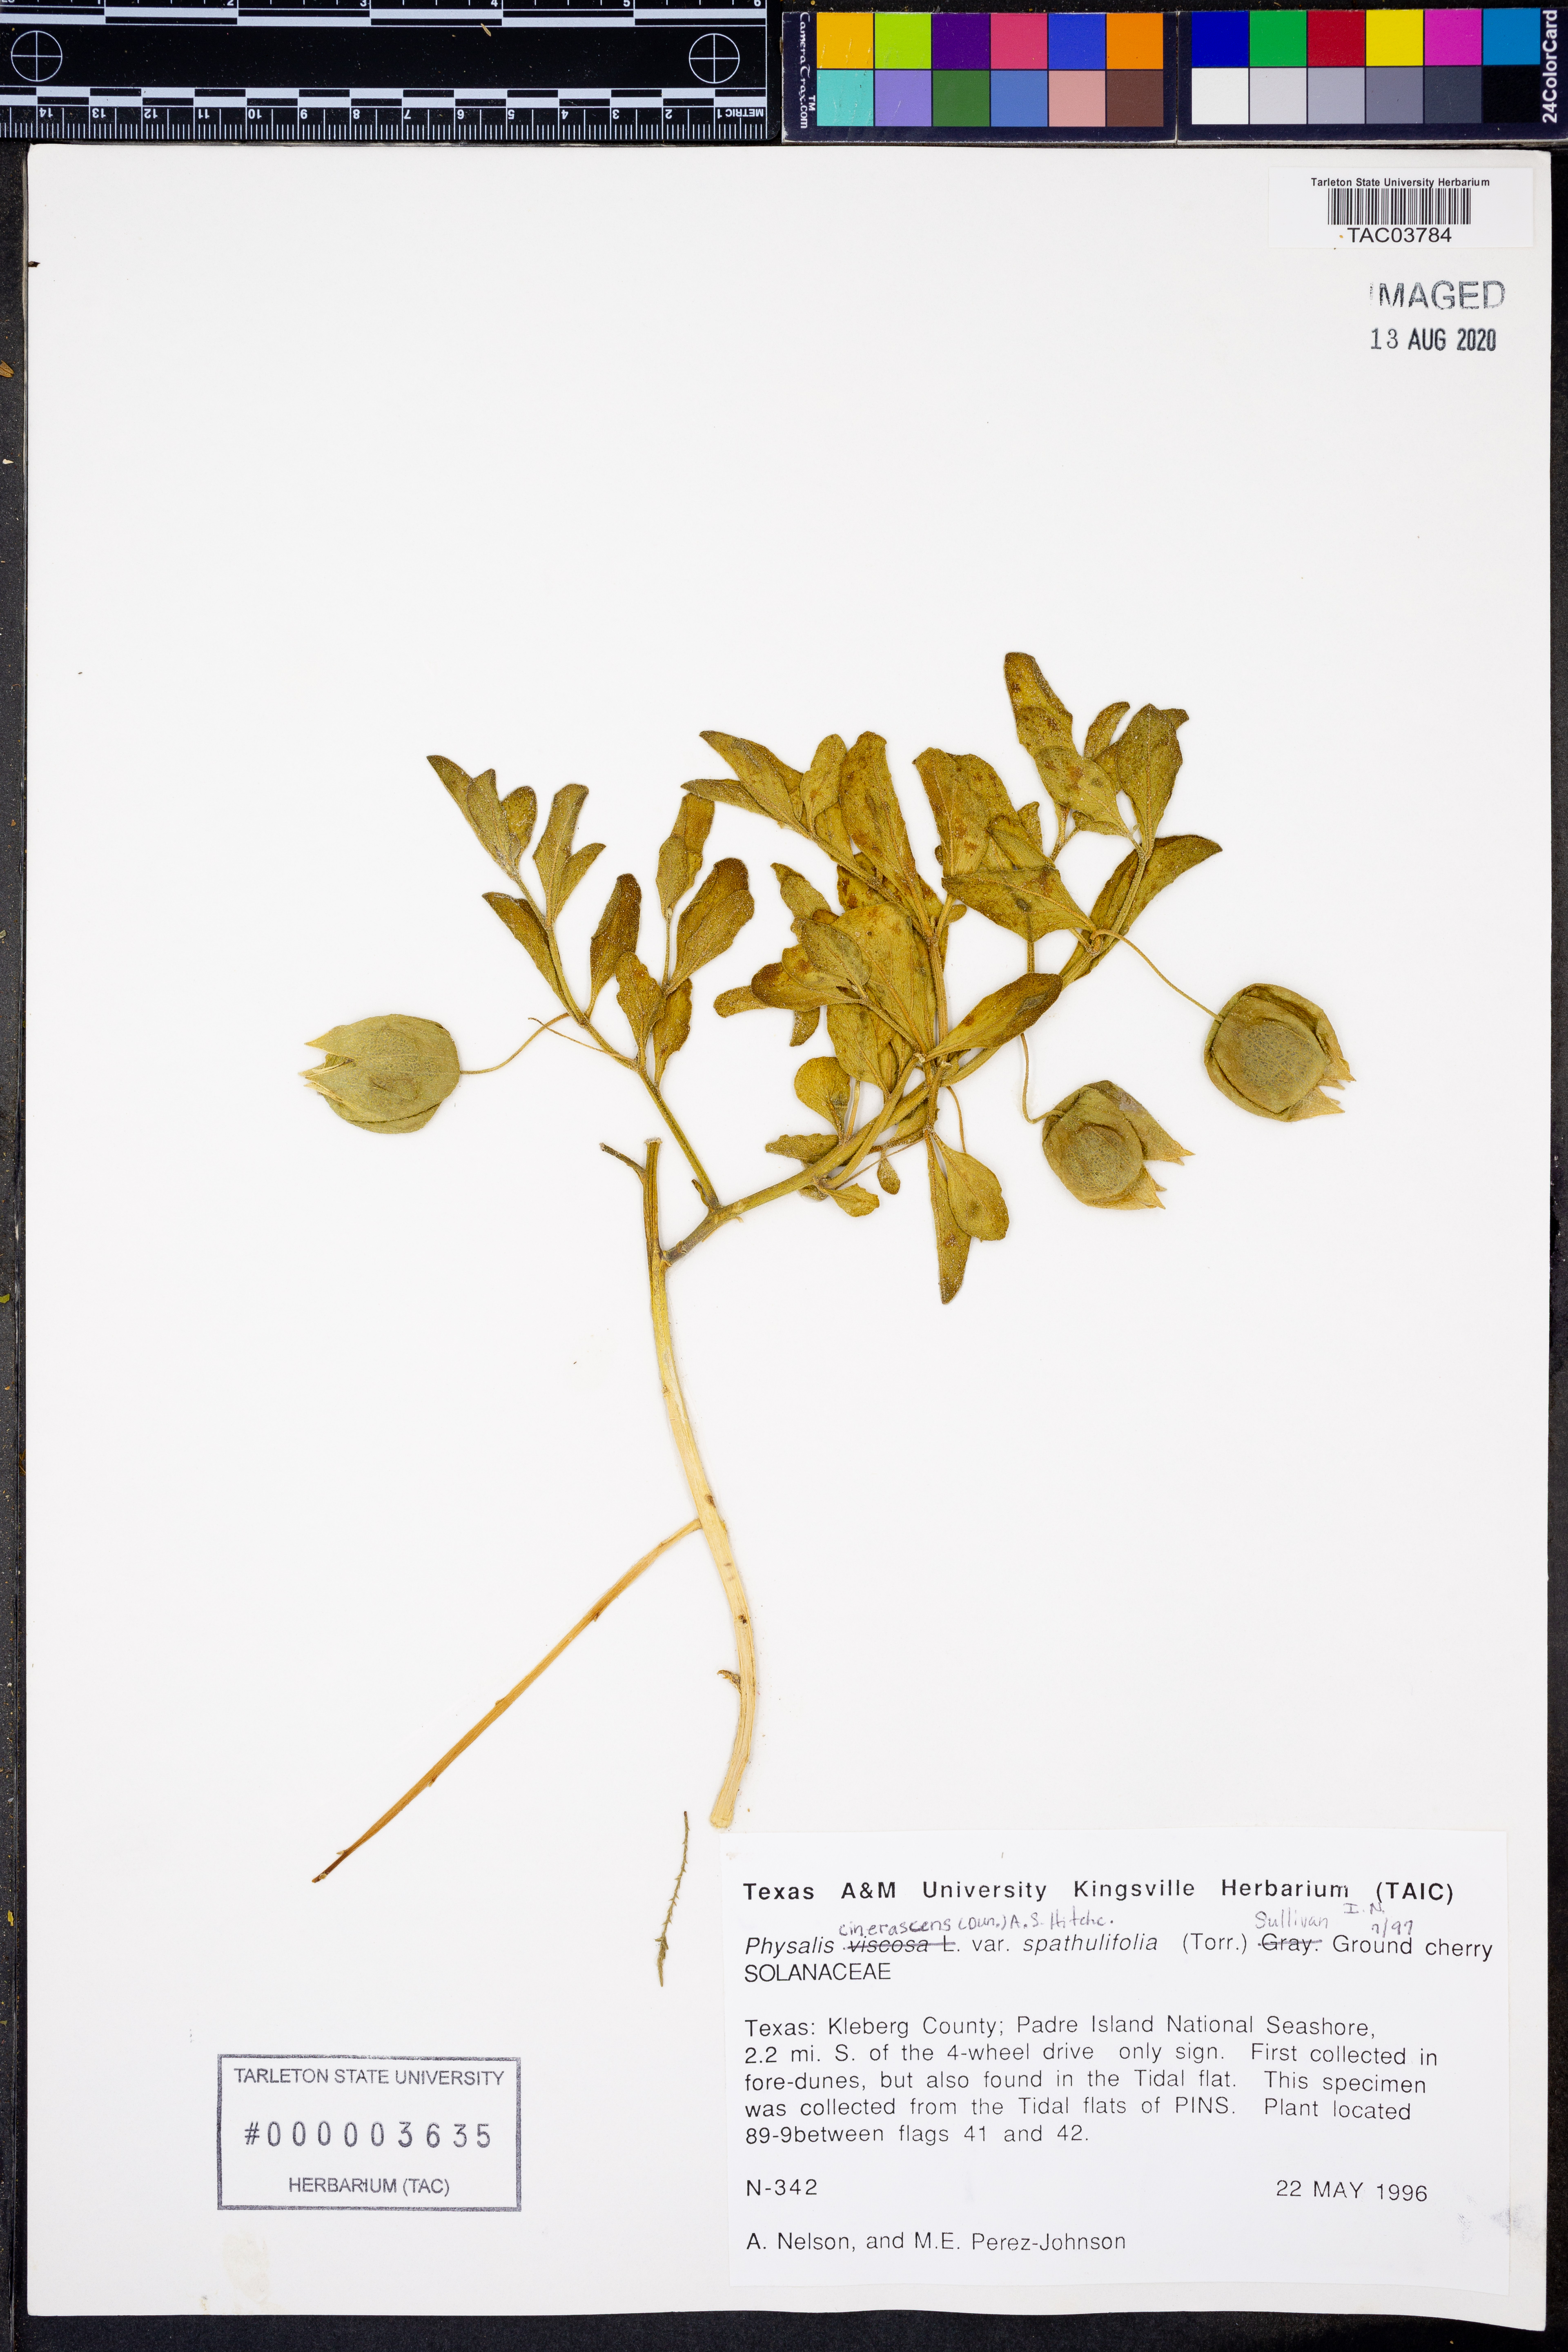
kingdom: Plantae
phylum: Tracheophyta
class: Magnoliopsida
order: Solanales
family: Solanaceae
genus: Physalis
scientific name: Physalis cinerascens
